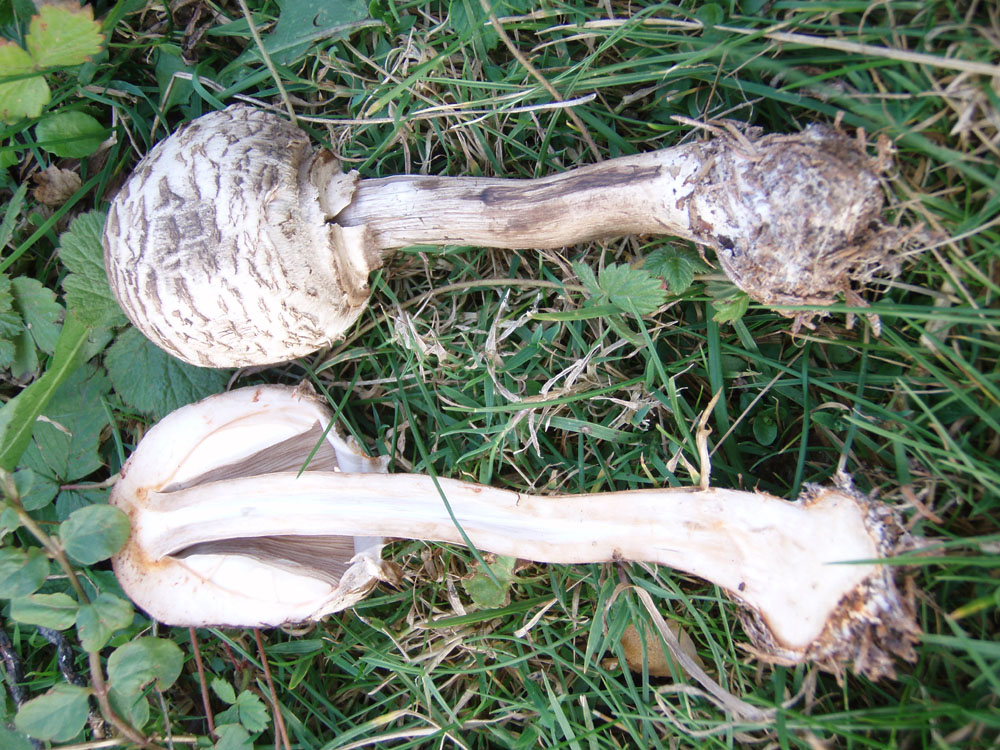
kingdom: Fungi
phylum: Basidiomycota
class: Agaricomycetes
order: Agaricales
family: Agaricaceae
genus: Chlorophyllum
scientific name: Chlorophyllum olivieri
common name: almindelig rabarberhat
